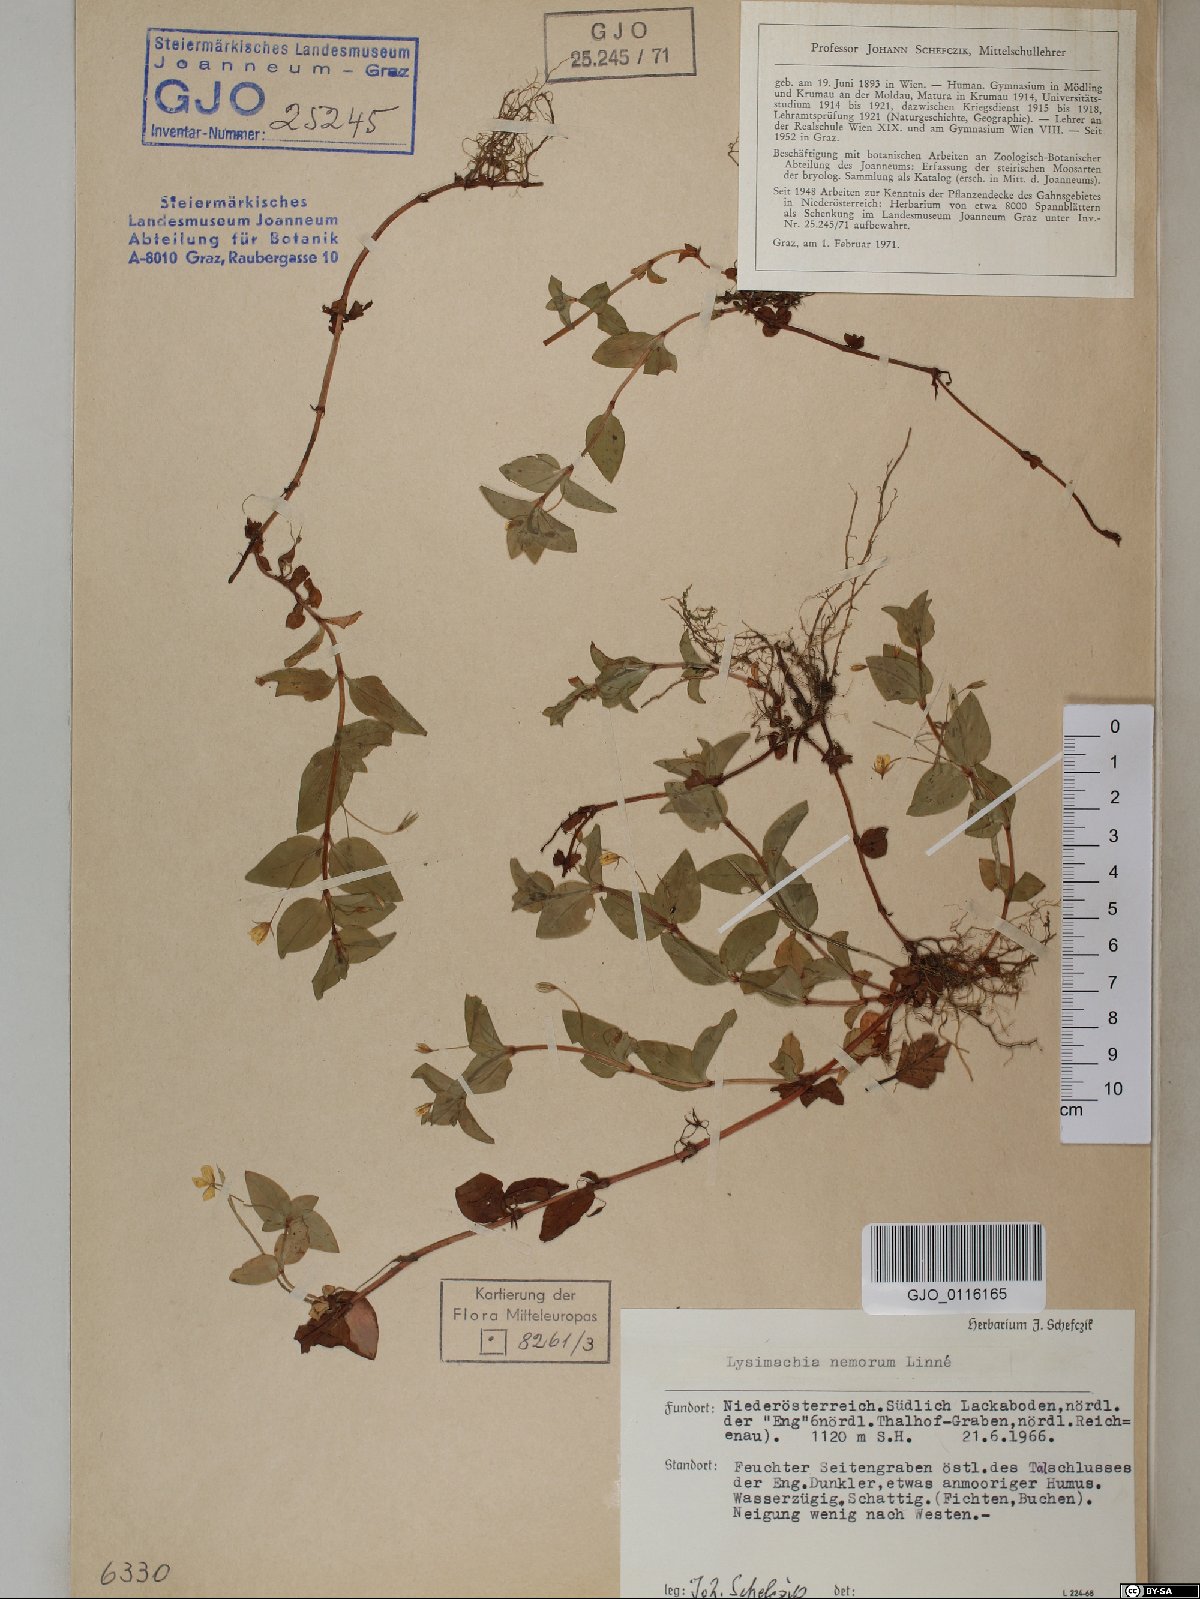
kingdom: Plantae
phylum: Tracheophyta
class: Magnoliopsida
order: Ericales
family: Primulaceae
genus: Lysimachia
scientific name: Lysimachia nemorum
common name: Yellow pimpernel
